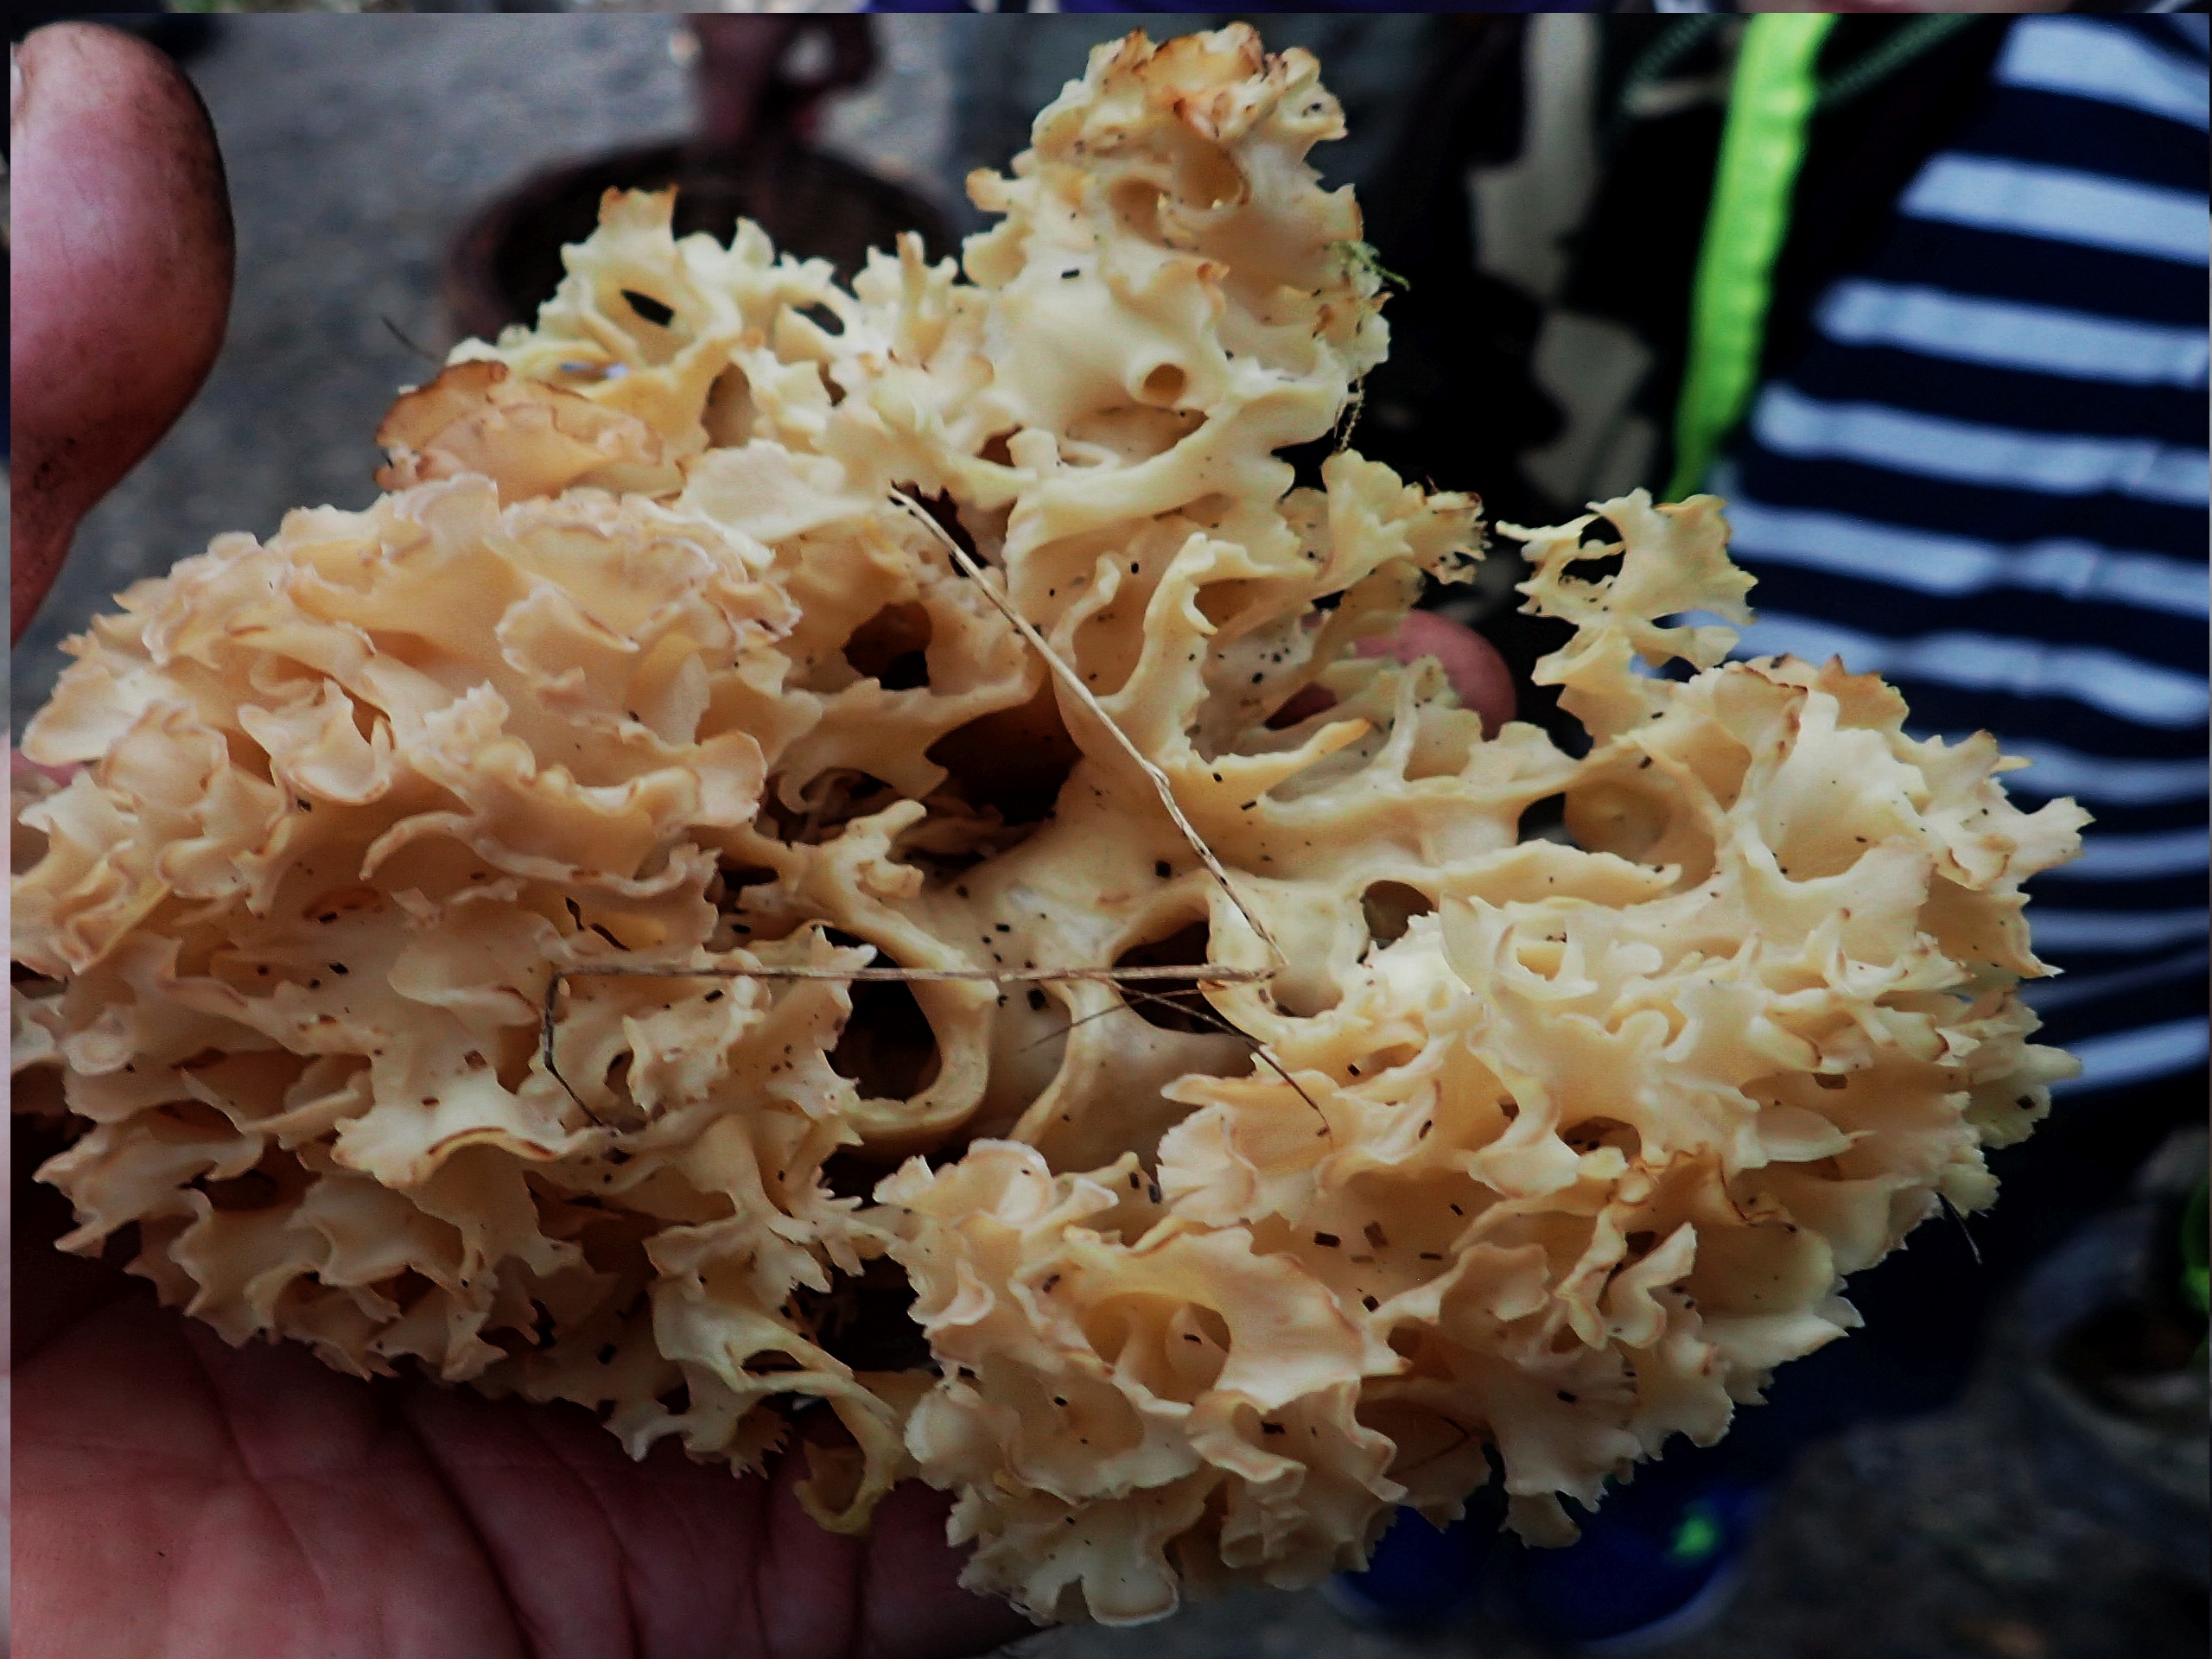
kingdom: Fungi
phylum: Basidiomycota
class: Agaricomycetes
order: Polyporales
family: Sparassidaceae
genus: Sparassis
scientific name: Sparassis crispa
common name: Kruset blomkålssvamp
